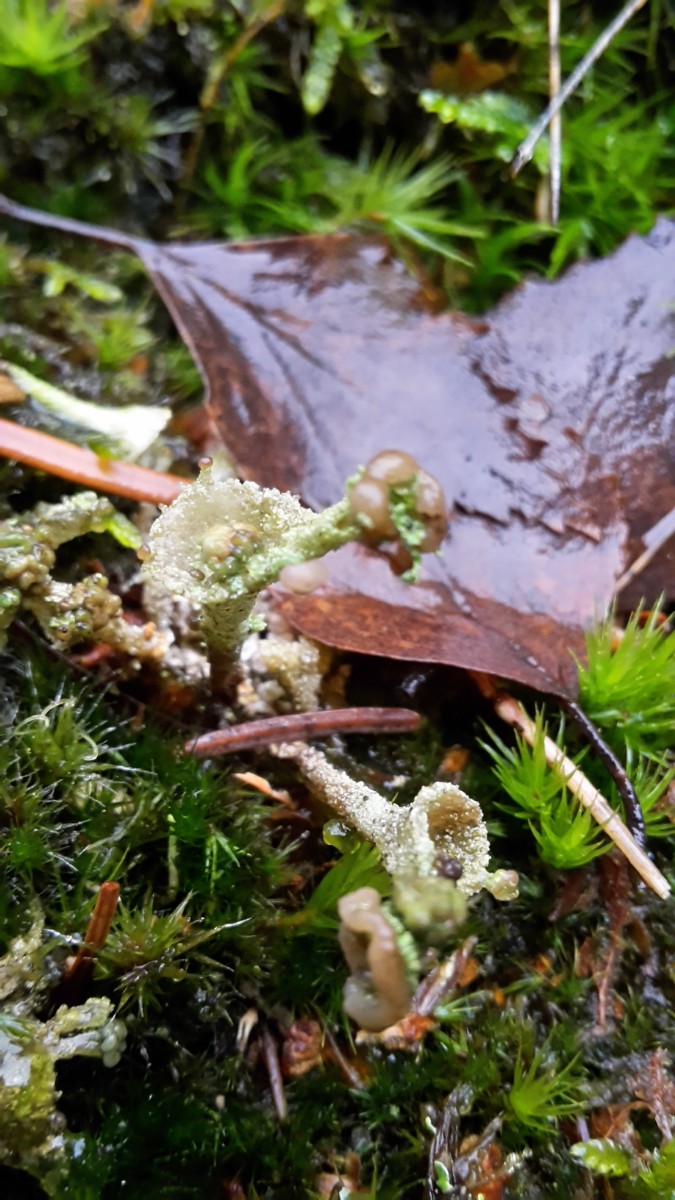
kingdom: Fungi
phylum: Ascomycota
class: Lecanoromycetes
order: Lecanorales
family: Cladoniaceae
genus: Cladonia
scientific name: Cladonia
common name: brungrøn bægerlav
